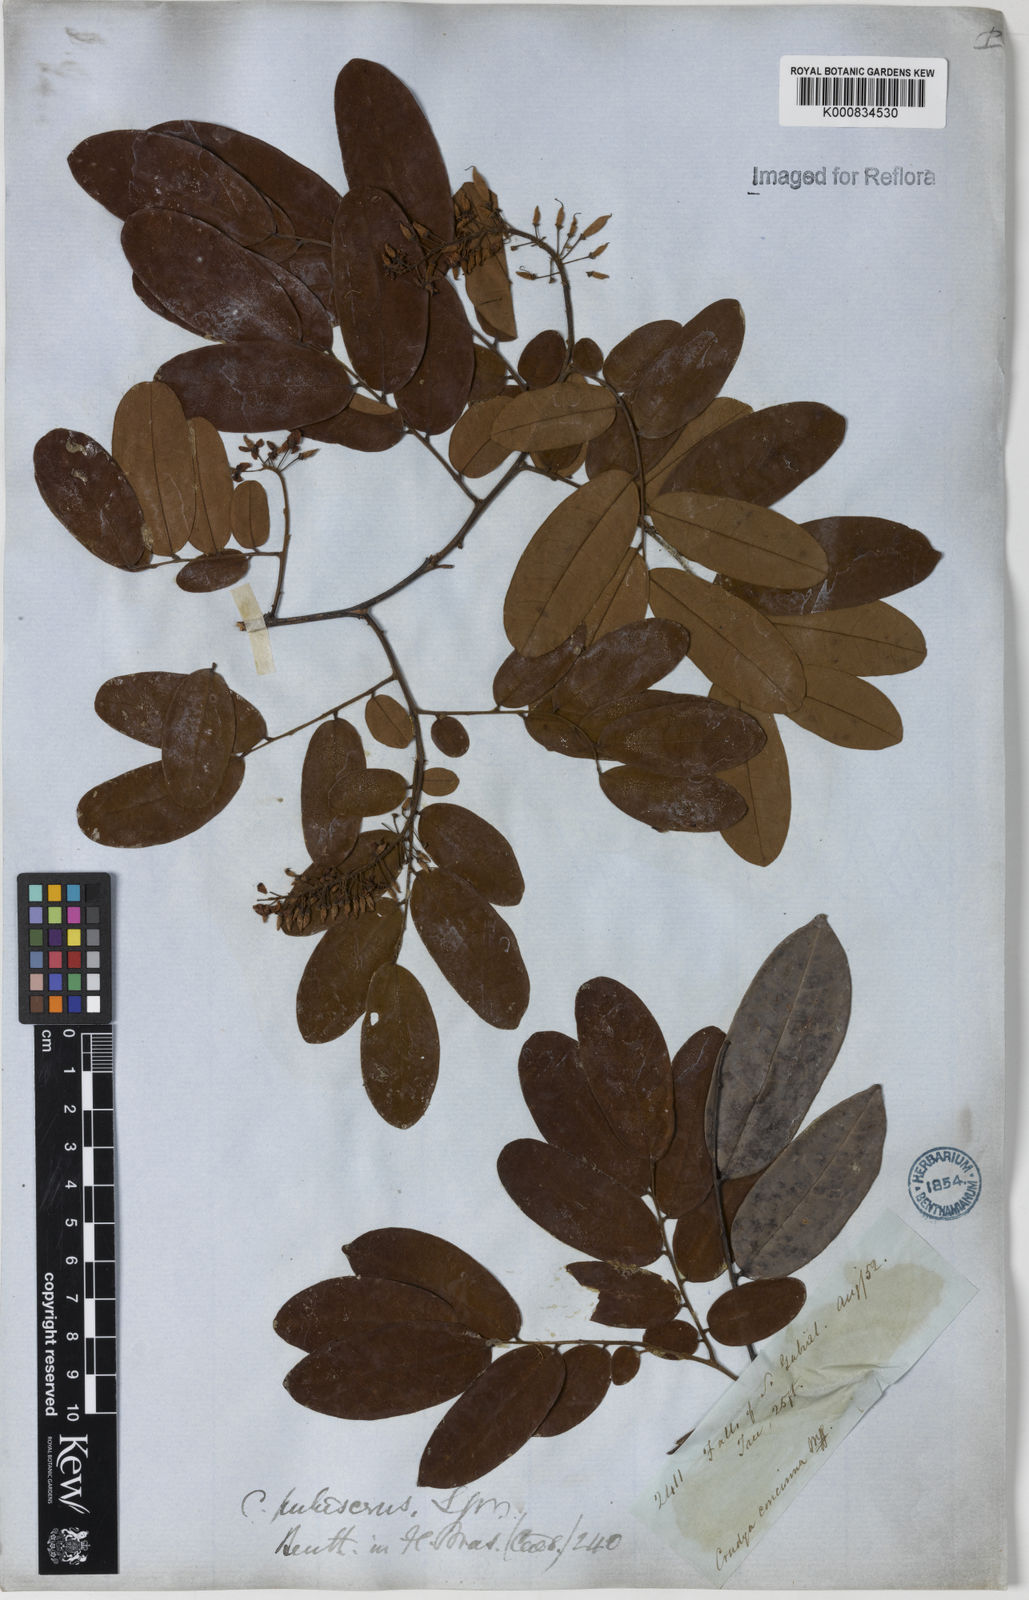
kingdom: Plantae
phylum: Tracheophyta
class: Magnoliopsida
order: Fabales
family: Fabaceae
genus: Crudia
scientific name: Crudia glaberrima
